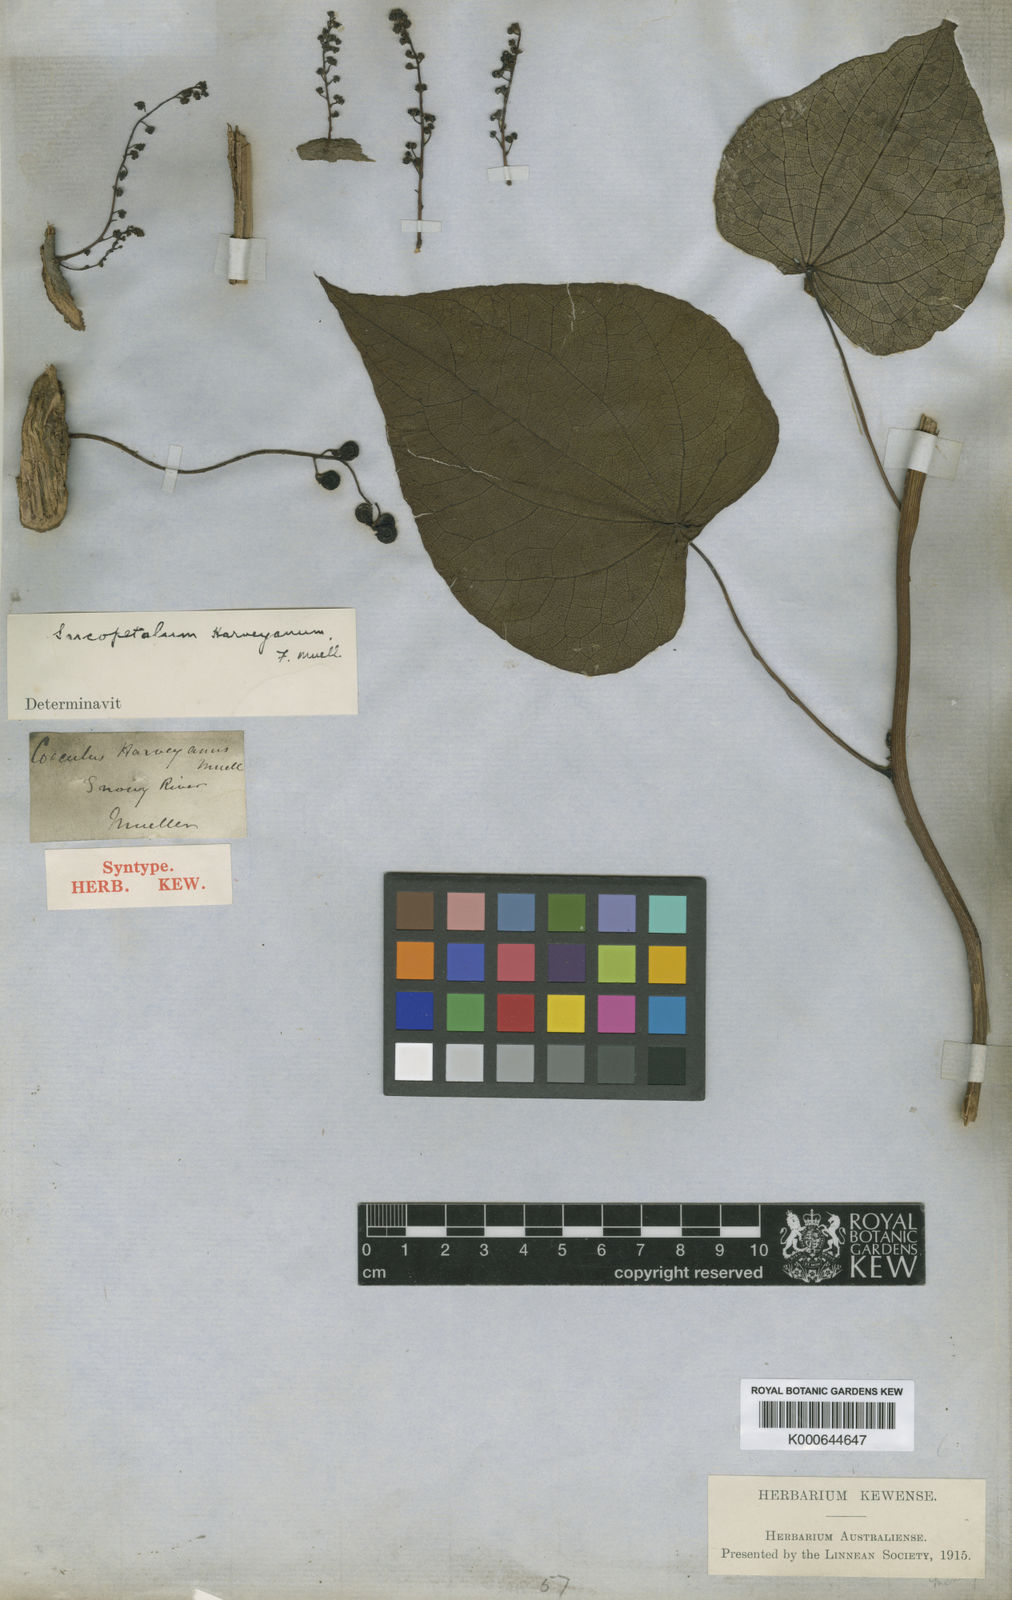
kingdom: Plantae
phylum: Tracheophyta
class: Magnoliopsida
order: Ranunculales
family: Menispermaceae
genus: Sarcopetalum
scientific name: Sarcopetalum harveyanum
